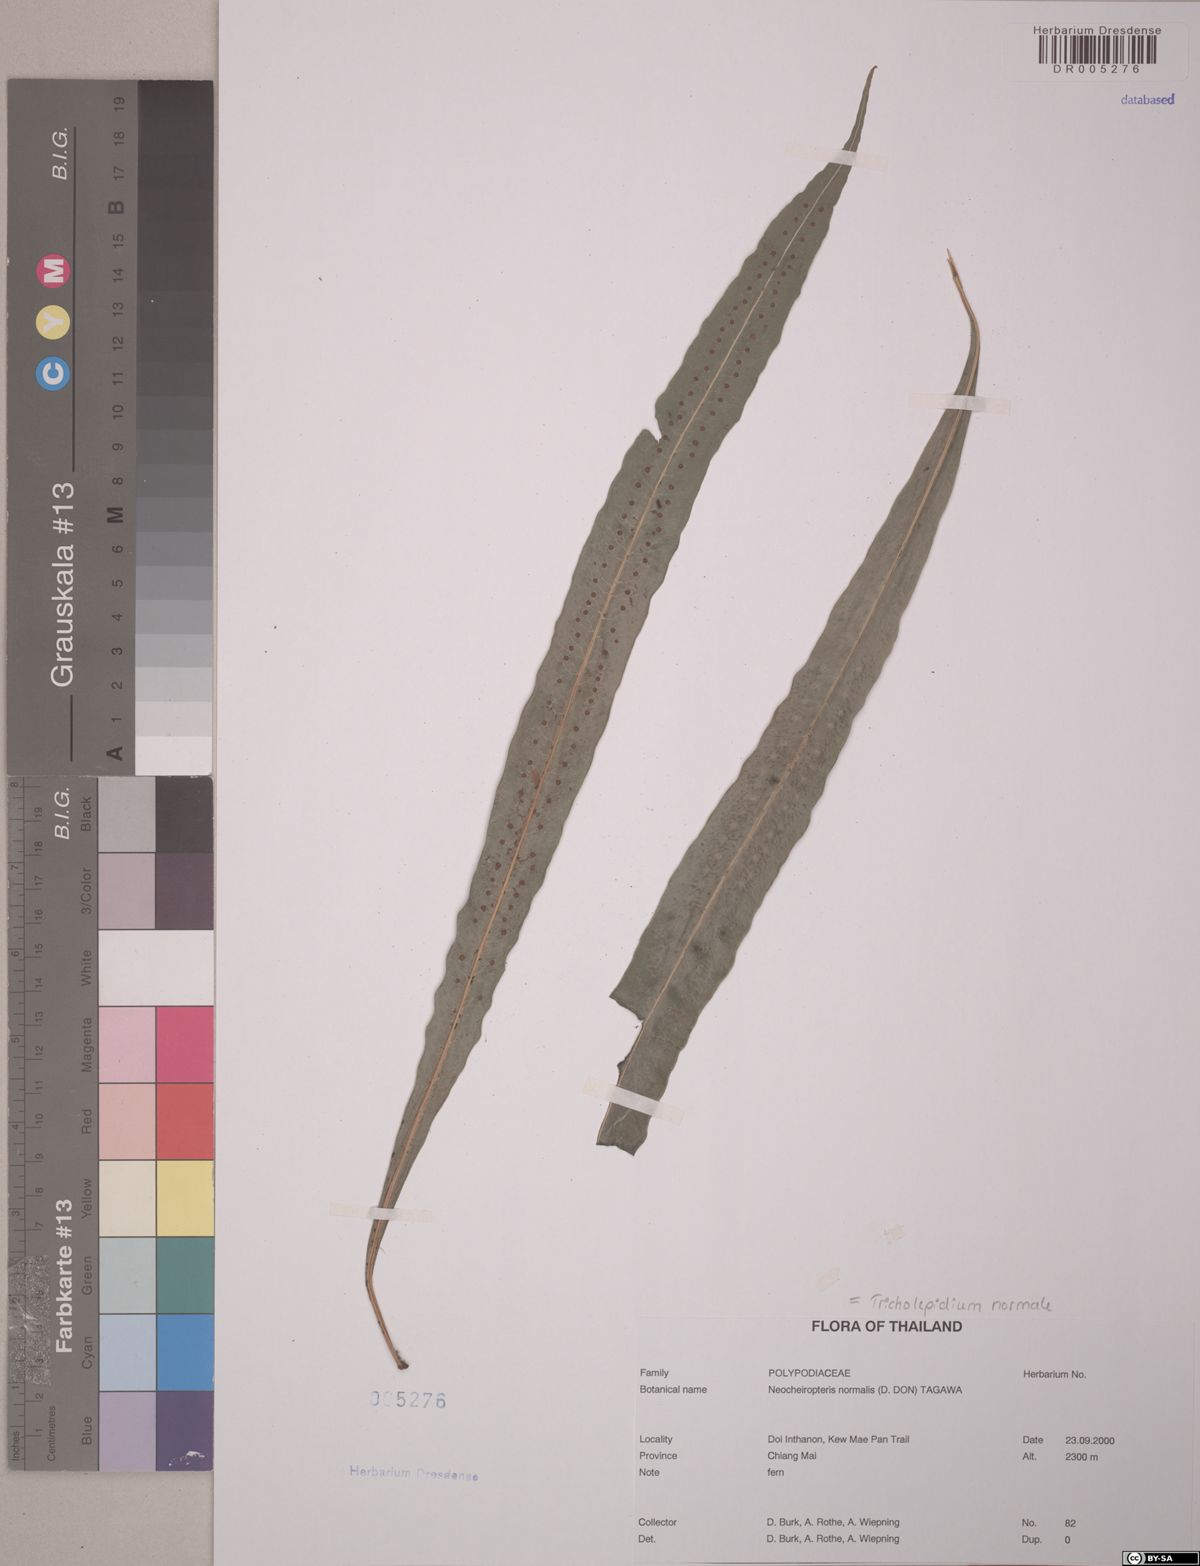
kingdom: Plantae
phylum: Tracheophyta
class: Polypodiopsida
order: Polypodiales
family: Polypodiaceae
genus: Lepisorus
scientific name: Lepisorus normalis
